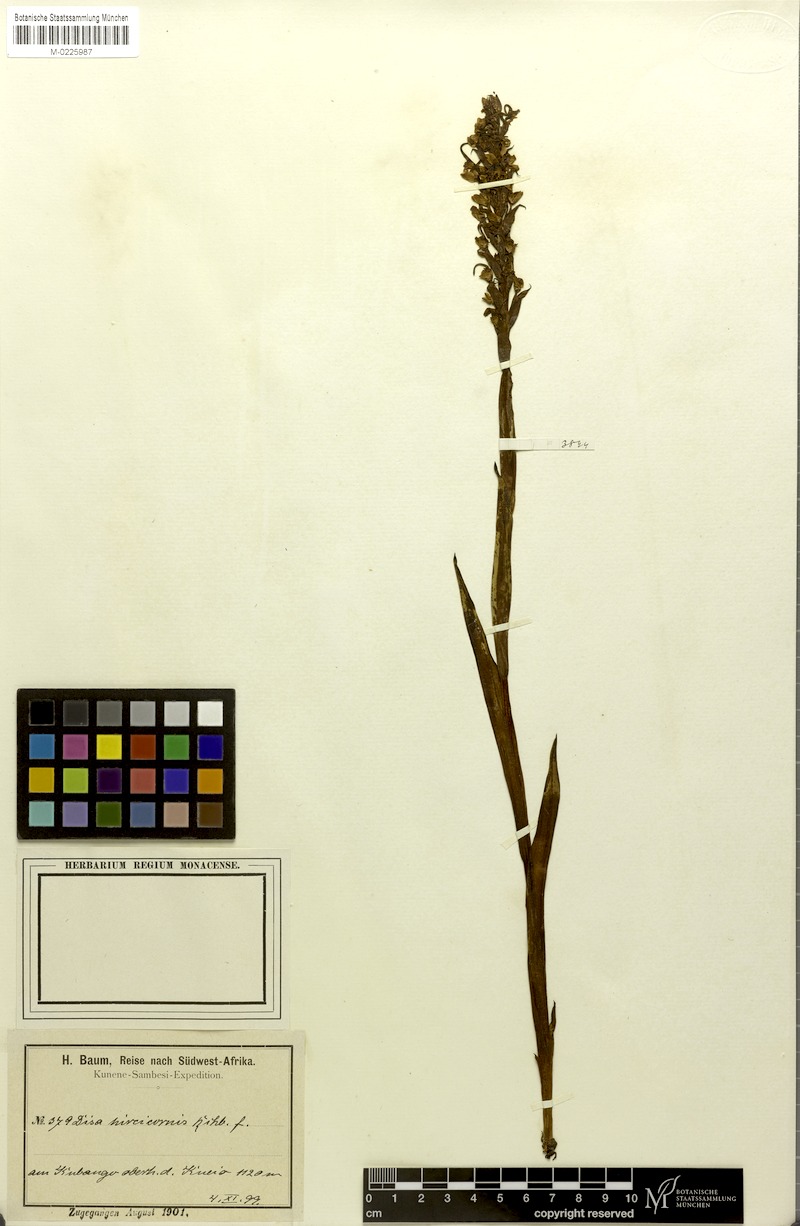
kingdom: Plantae
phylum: Tracheophyta
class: Liliopsida
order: Asparagales
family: Orchidaceae
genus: Disa
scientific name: Disa hircicornis
